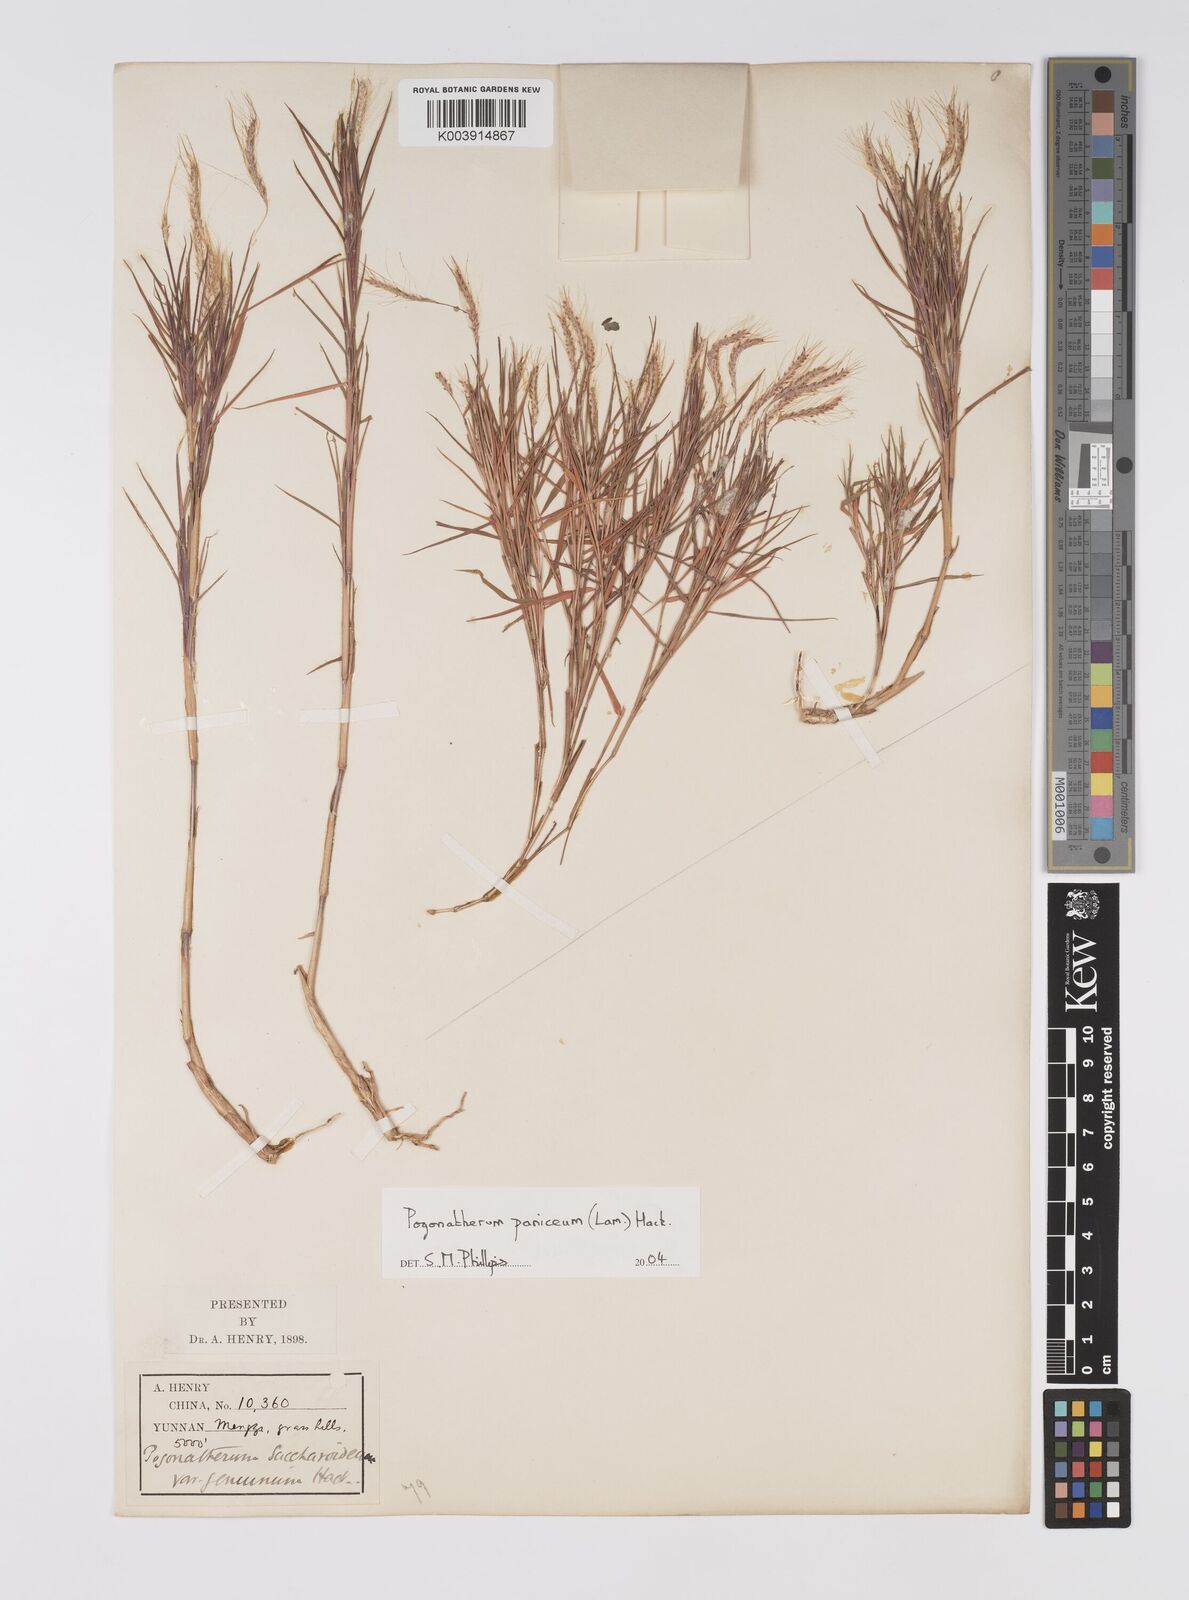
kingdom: Plantae
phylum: Tracheophyta
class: Liliopsida
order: Poales
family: Poaceae
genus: Pogonatherum
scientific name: Pogonatherum paniceum
